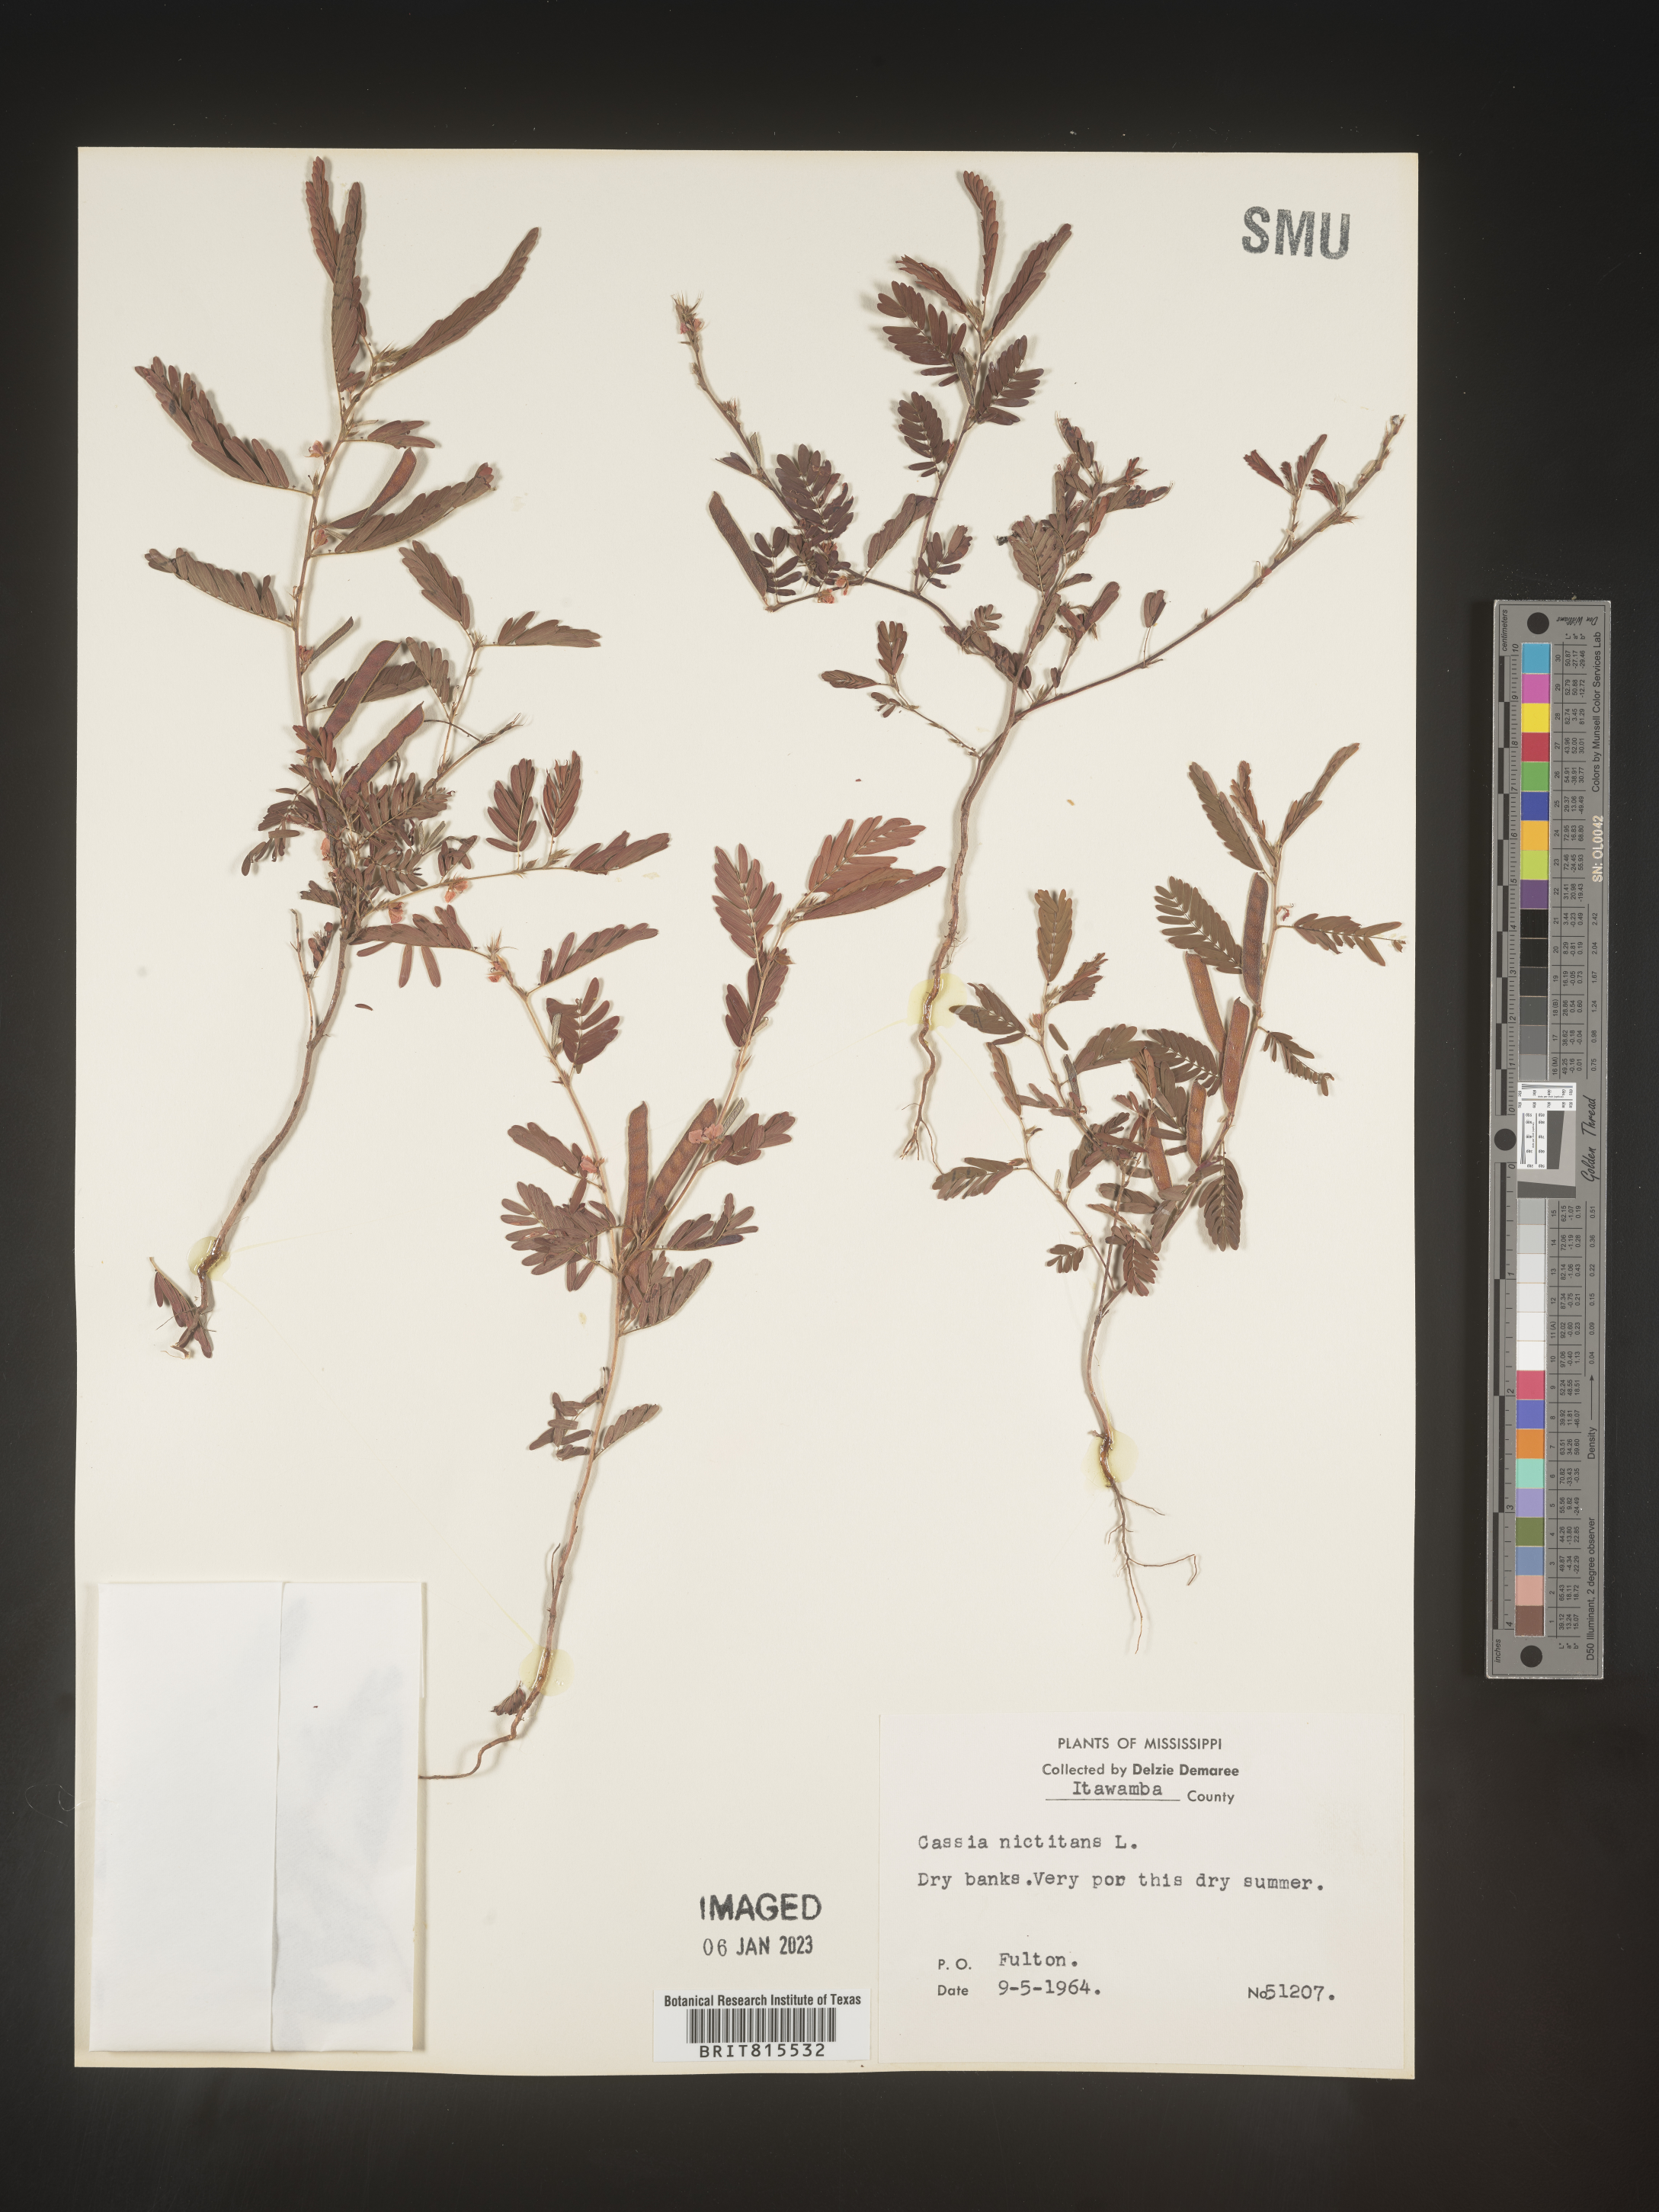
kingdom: Plantae
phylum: Tracheophyta
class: Magnoliopsida
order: Fabales
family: Fabaceae
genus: Chamaecrista
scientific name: Chamaecrista nictitans
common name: Sensitive cassia
